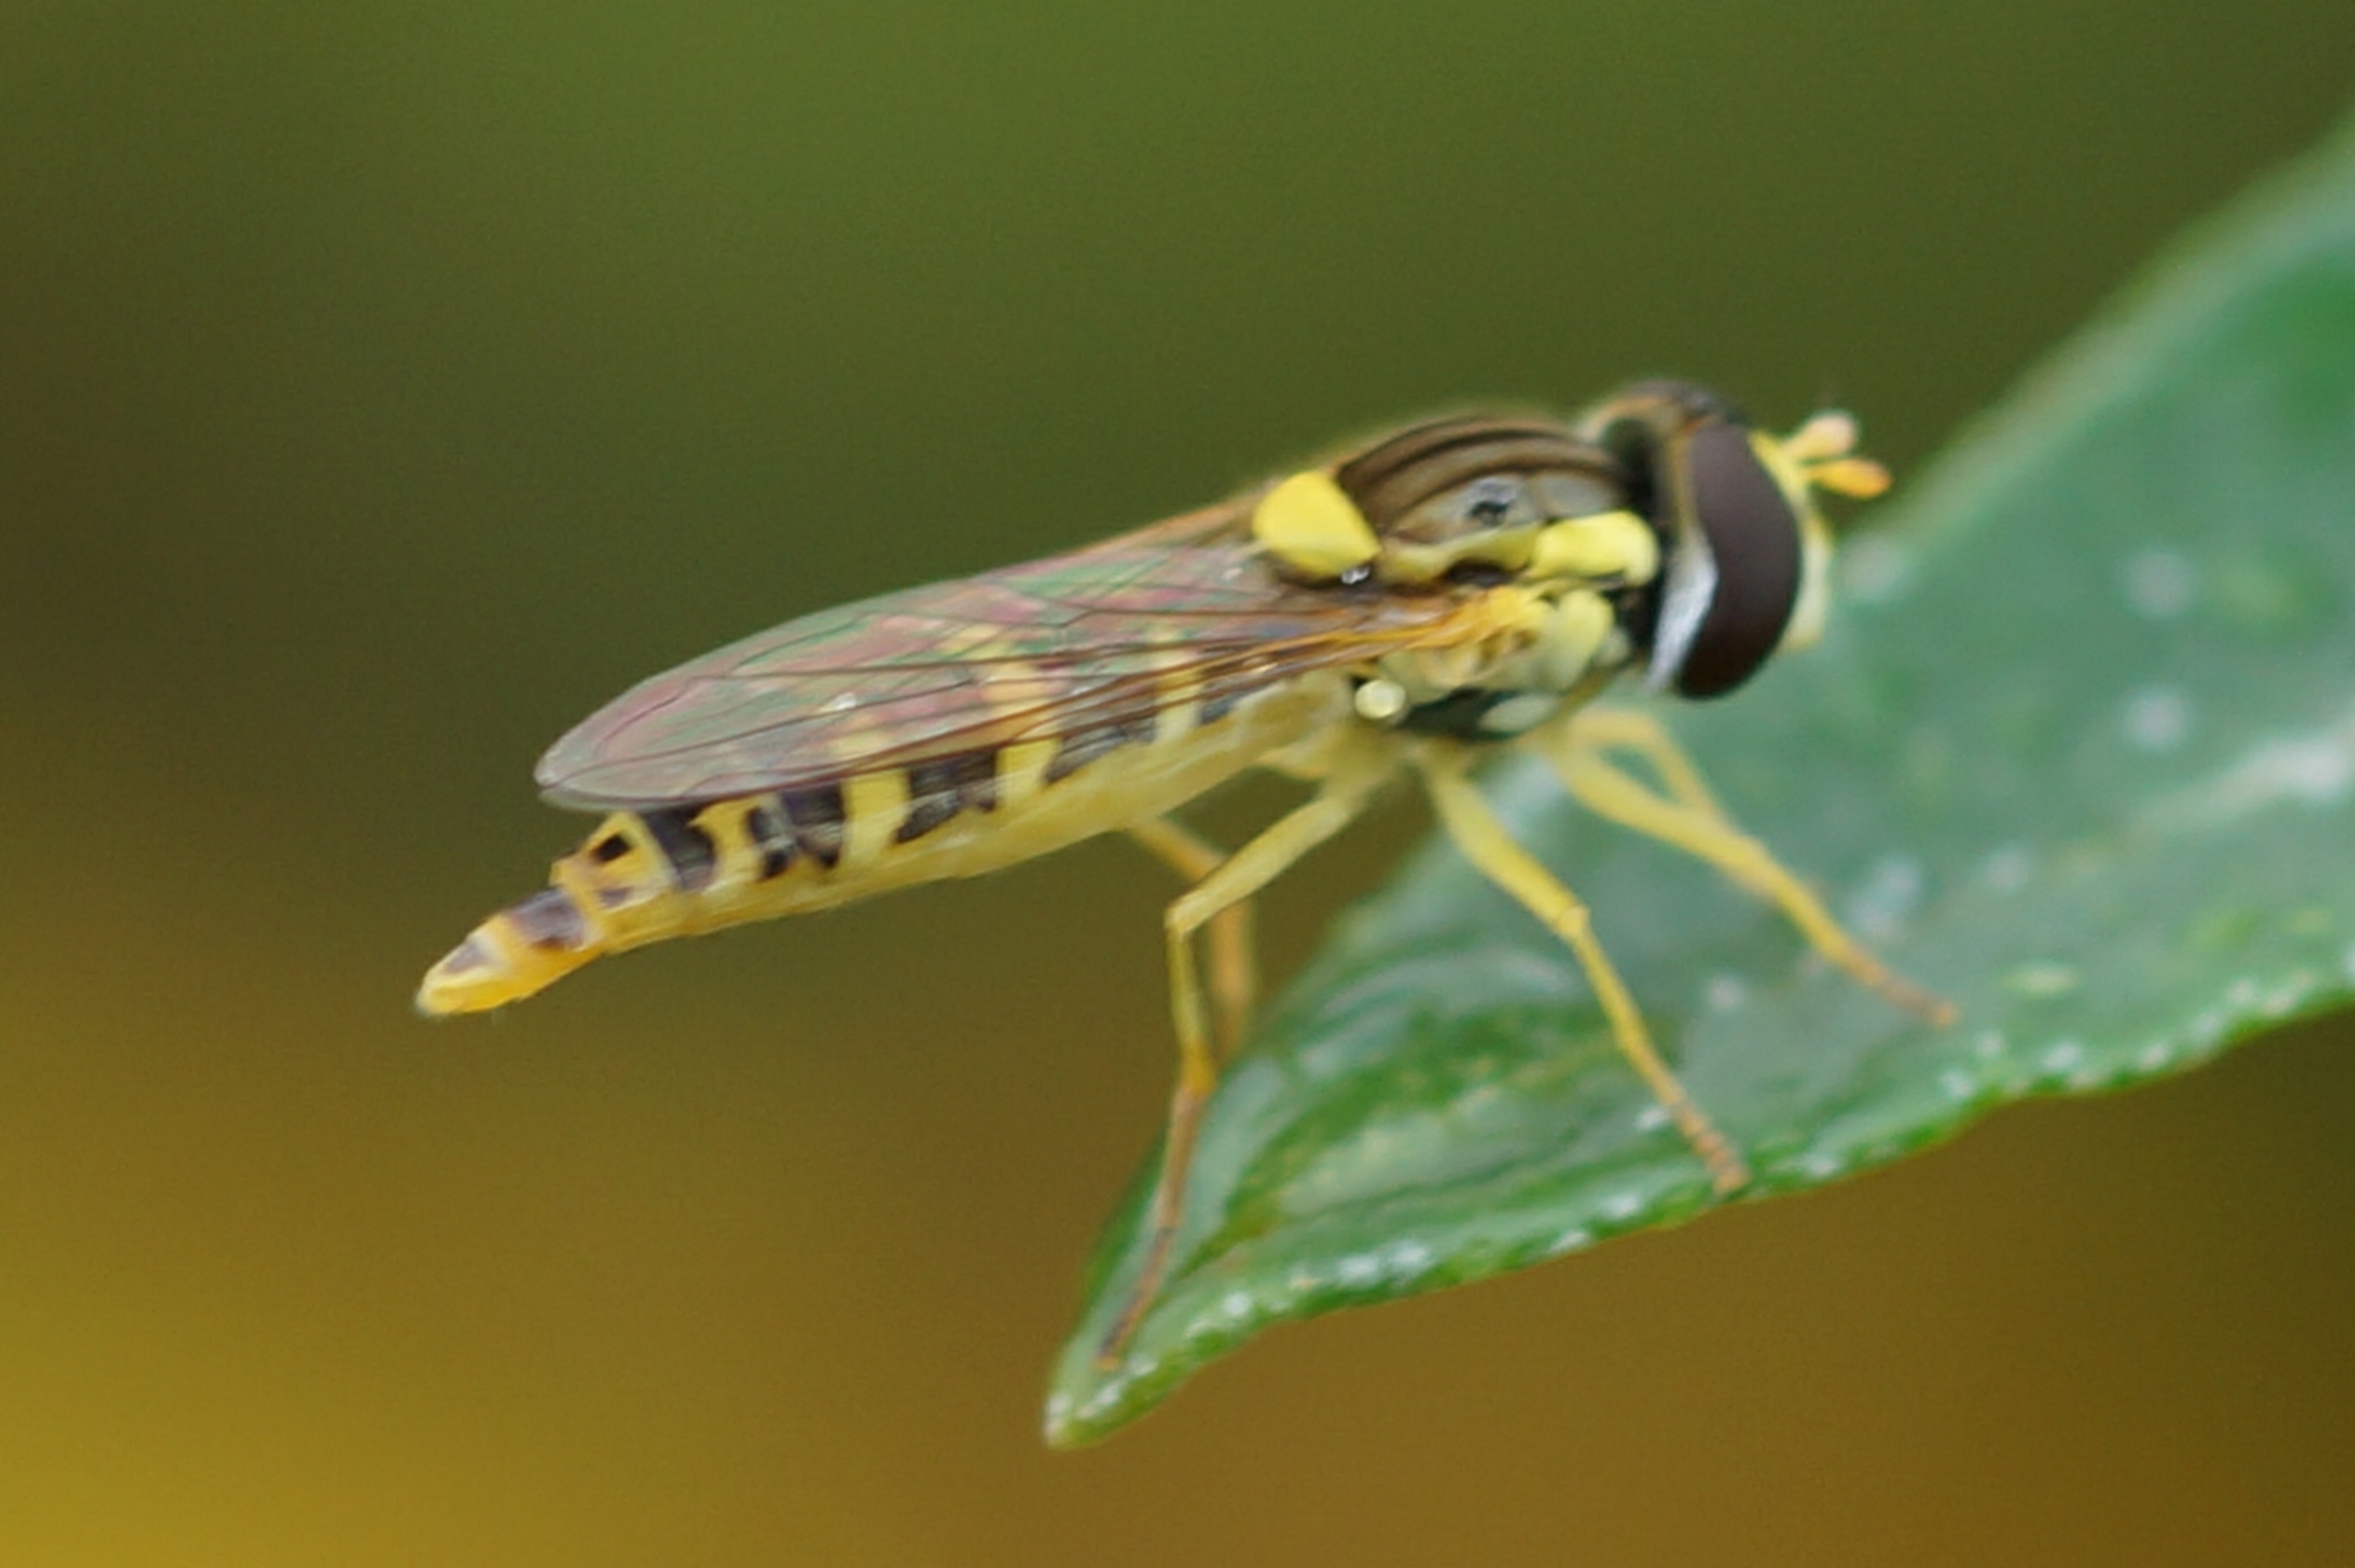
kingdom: Animalia
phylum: Arthropoda
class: Insecta
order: Diptera
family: Syrphidae
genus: Sphaerophoria
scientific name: Sphaerophoria scripta
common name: Almindelig kuglebærerflue
